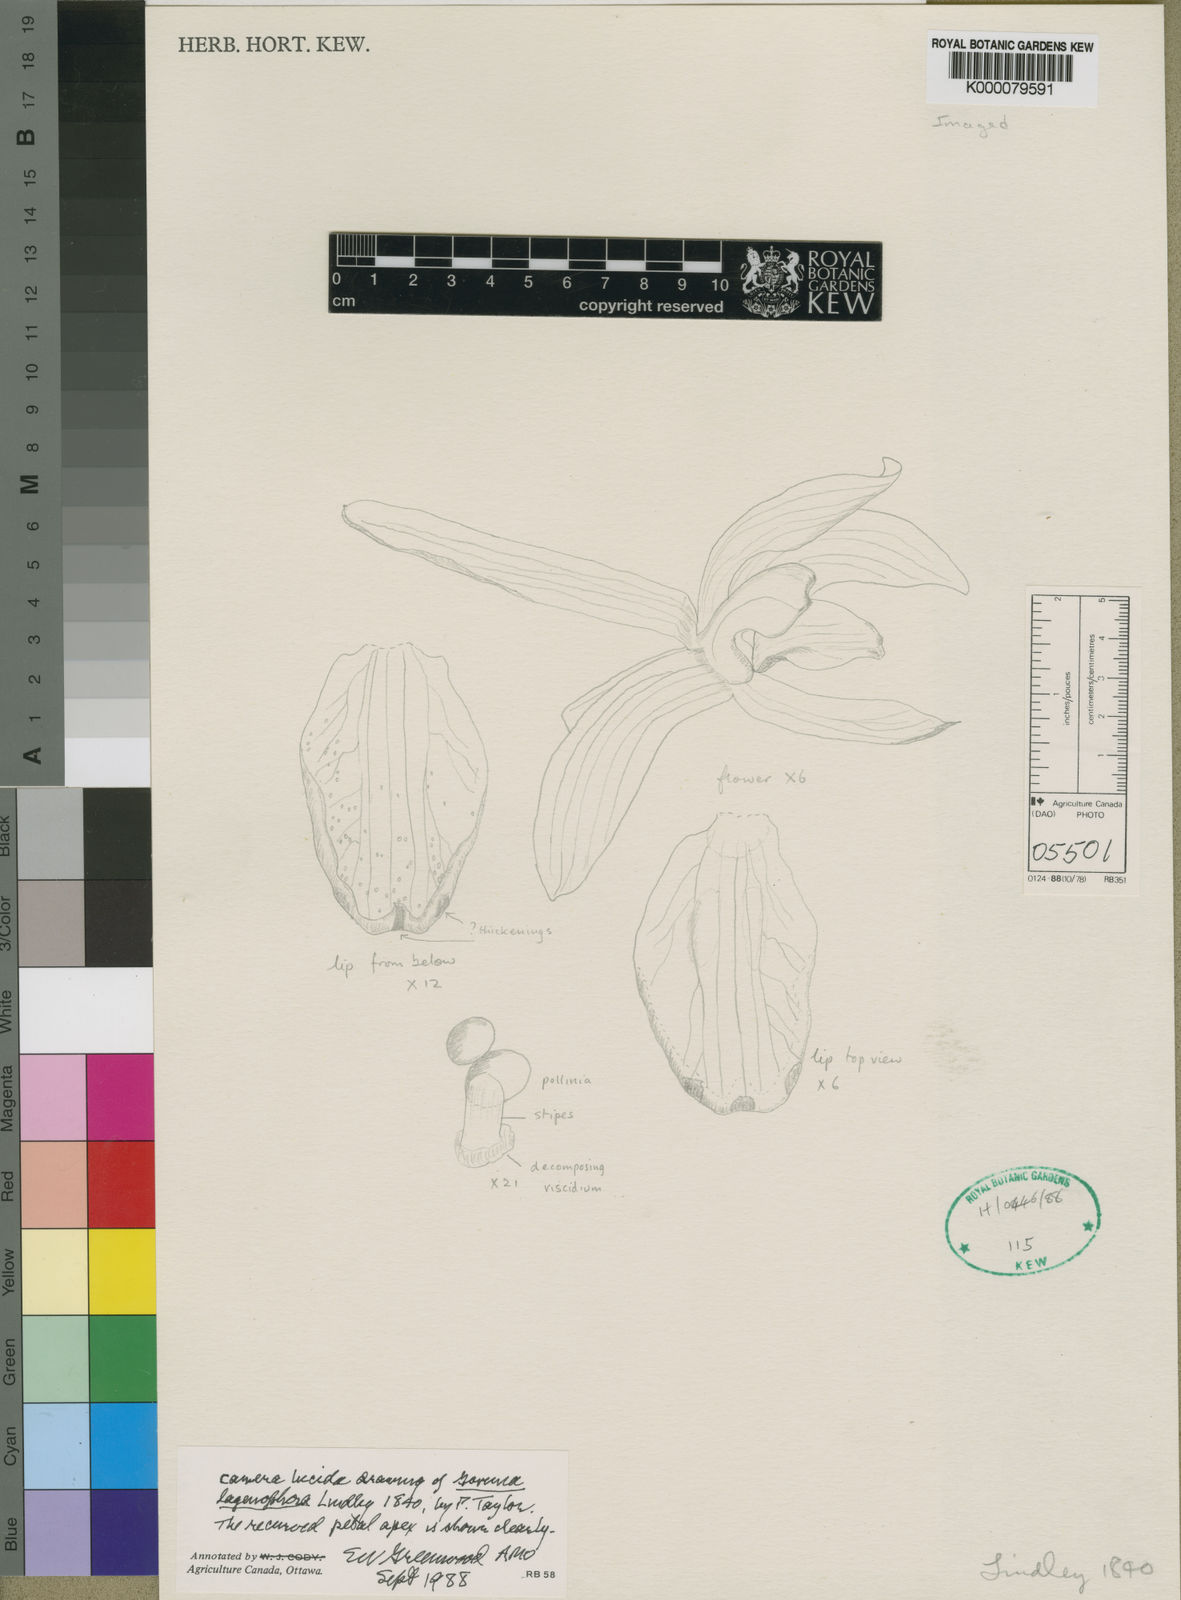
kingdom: Plantae
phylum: Tracheophyta
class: Liliopsida
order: Asparagales
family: Orchidaceae
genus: Govenia
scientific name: Govenia lagenophora
